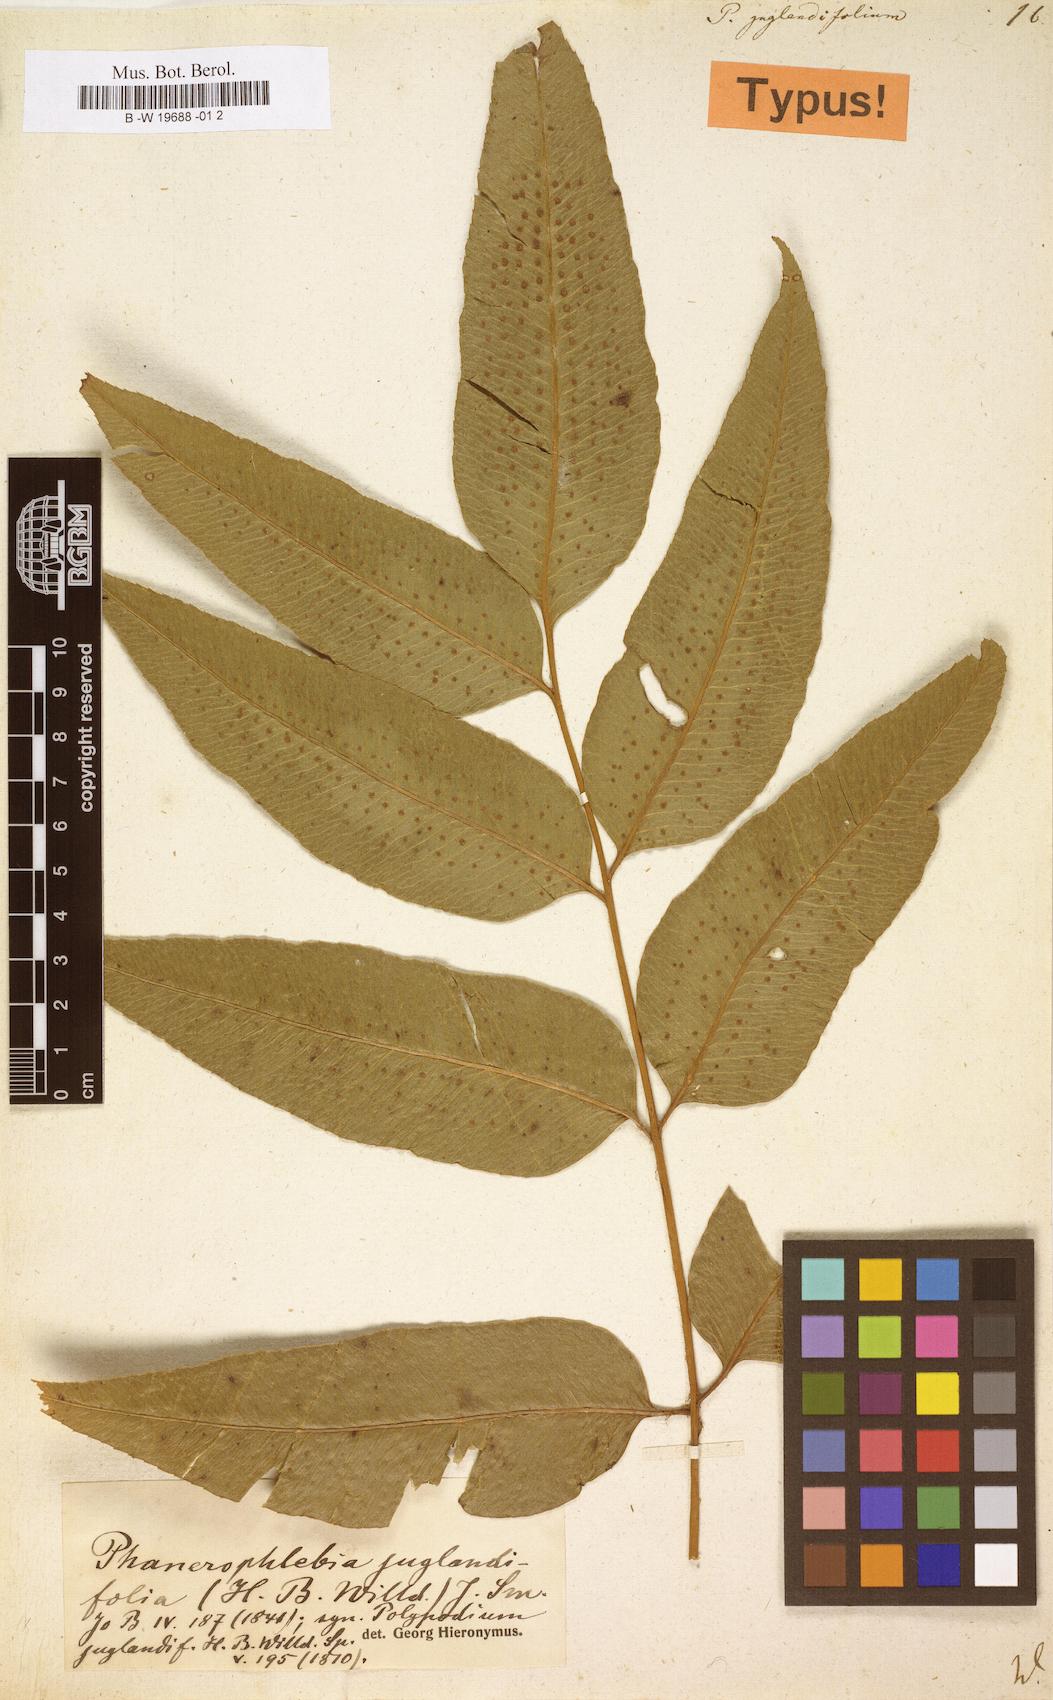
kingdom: Plantae
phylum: Tracheophyta
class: Polypodiopsida
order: Polypodiales
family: Dryopteridaceae
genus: Phanerophlebia
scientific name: Phanerophlebia juglandifolia
